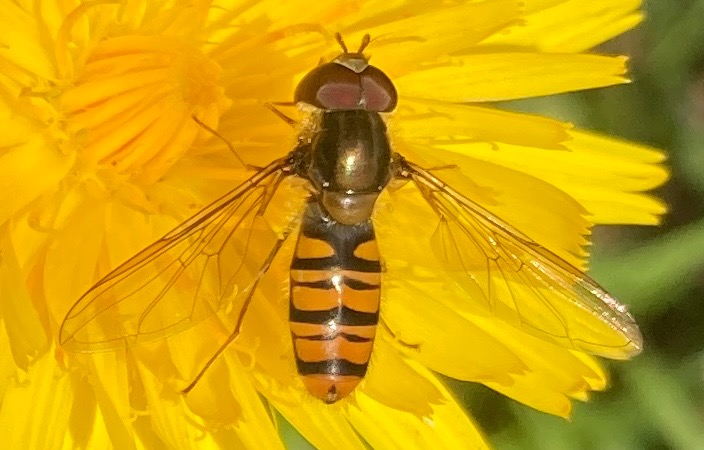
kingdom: Animalia
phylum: Arthropoda
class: Insecta
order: Diptera
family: Syrphidae
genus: Episyrphus
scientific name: Episyrphus balteatus
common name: Dobbeltbåndet svirreflue
